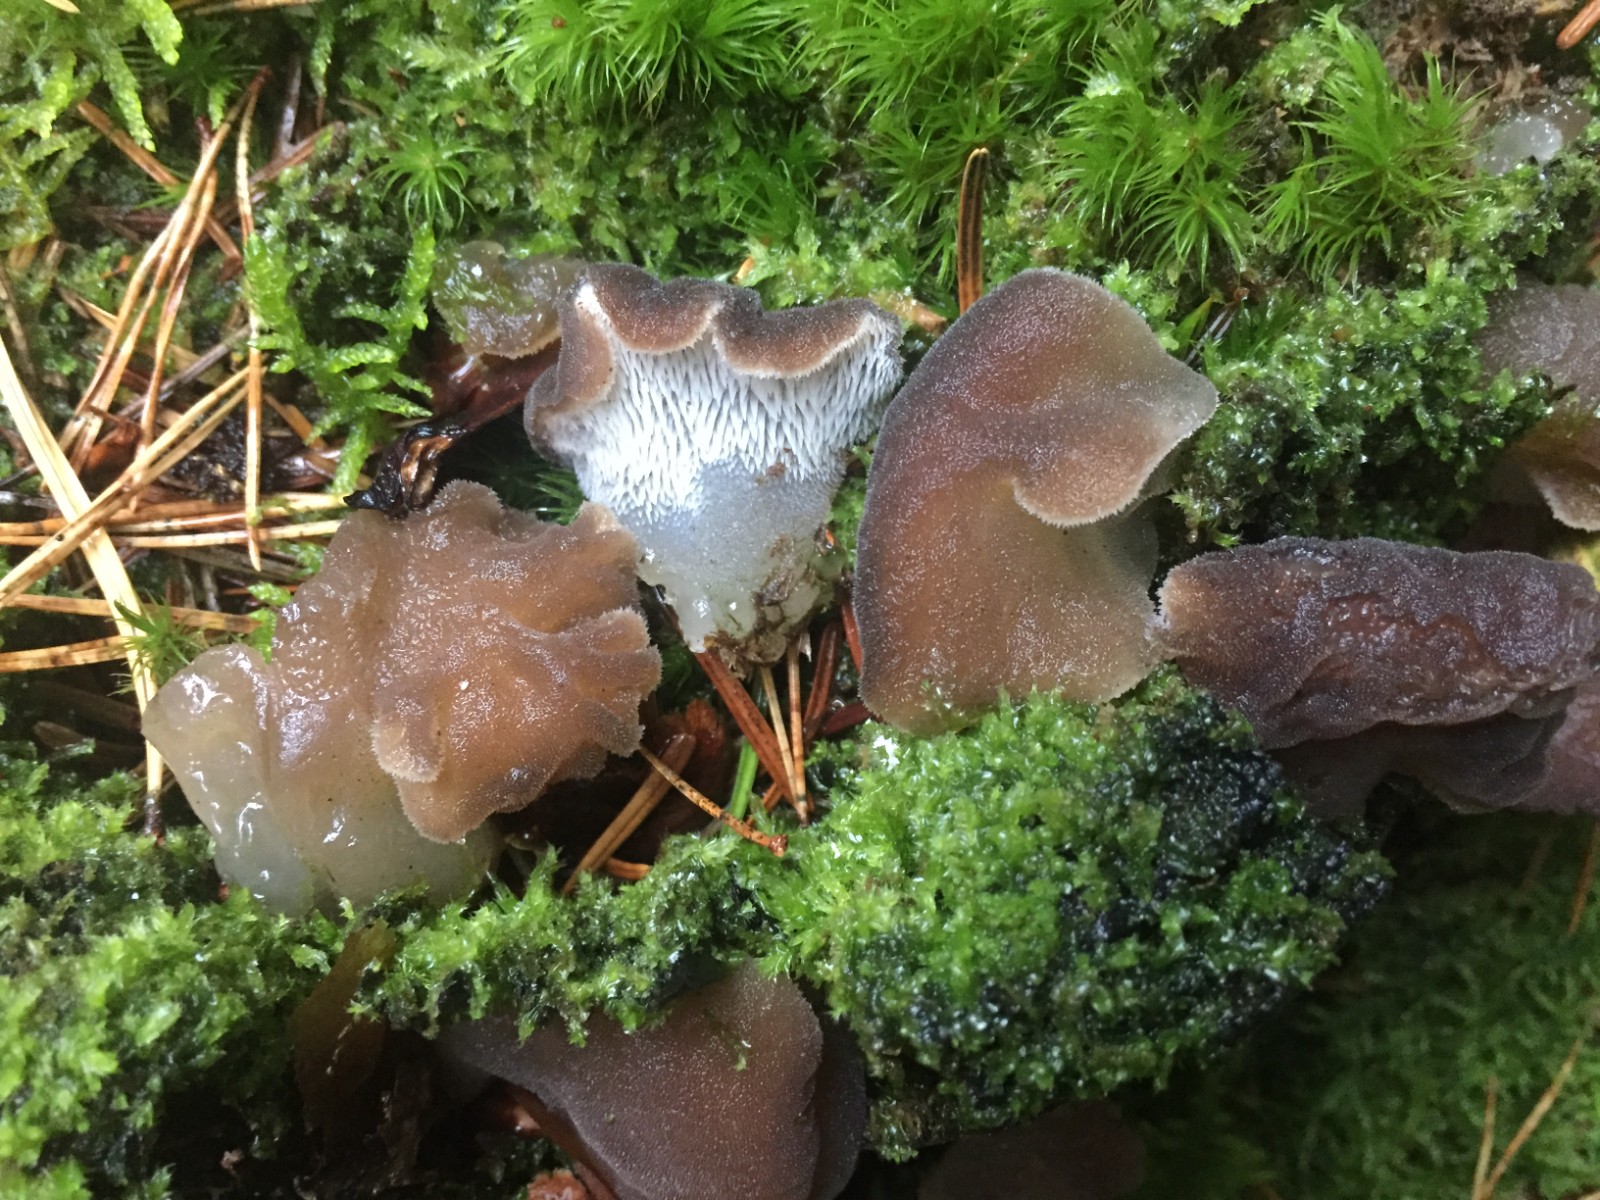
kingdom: Fungi
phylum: Basidiomycota
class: Agaricomycetes
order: Auriculariales
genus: Pseudohydnum
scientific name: Pseudohydnum gelatinosum
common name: bævretand
